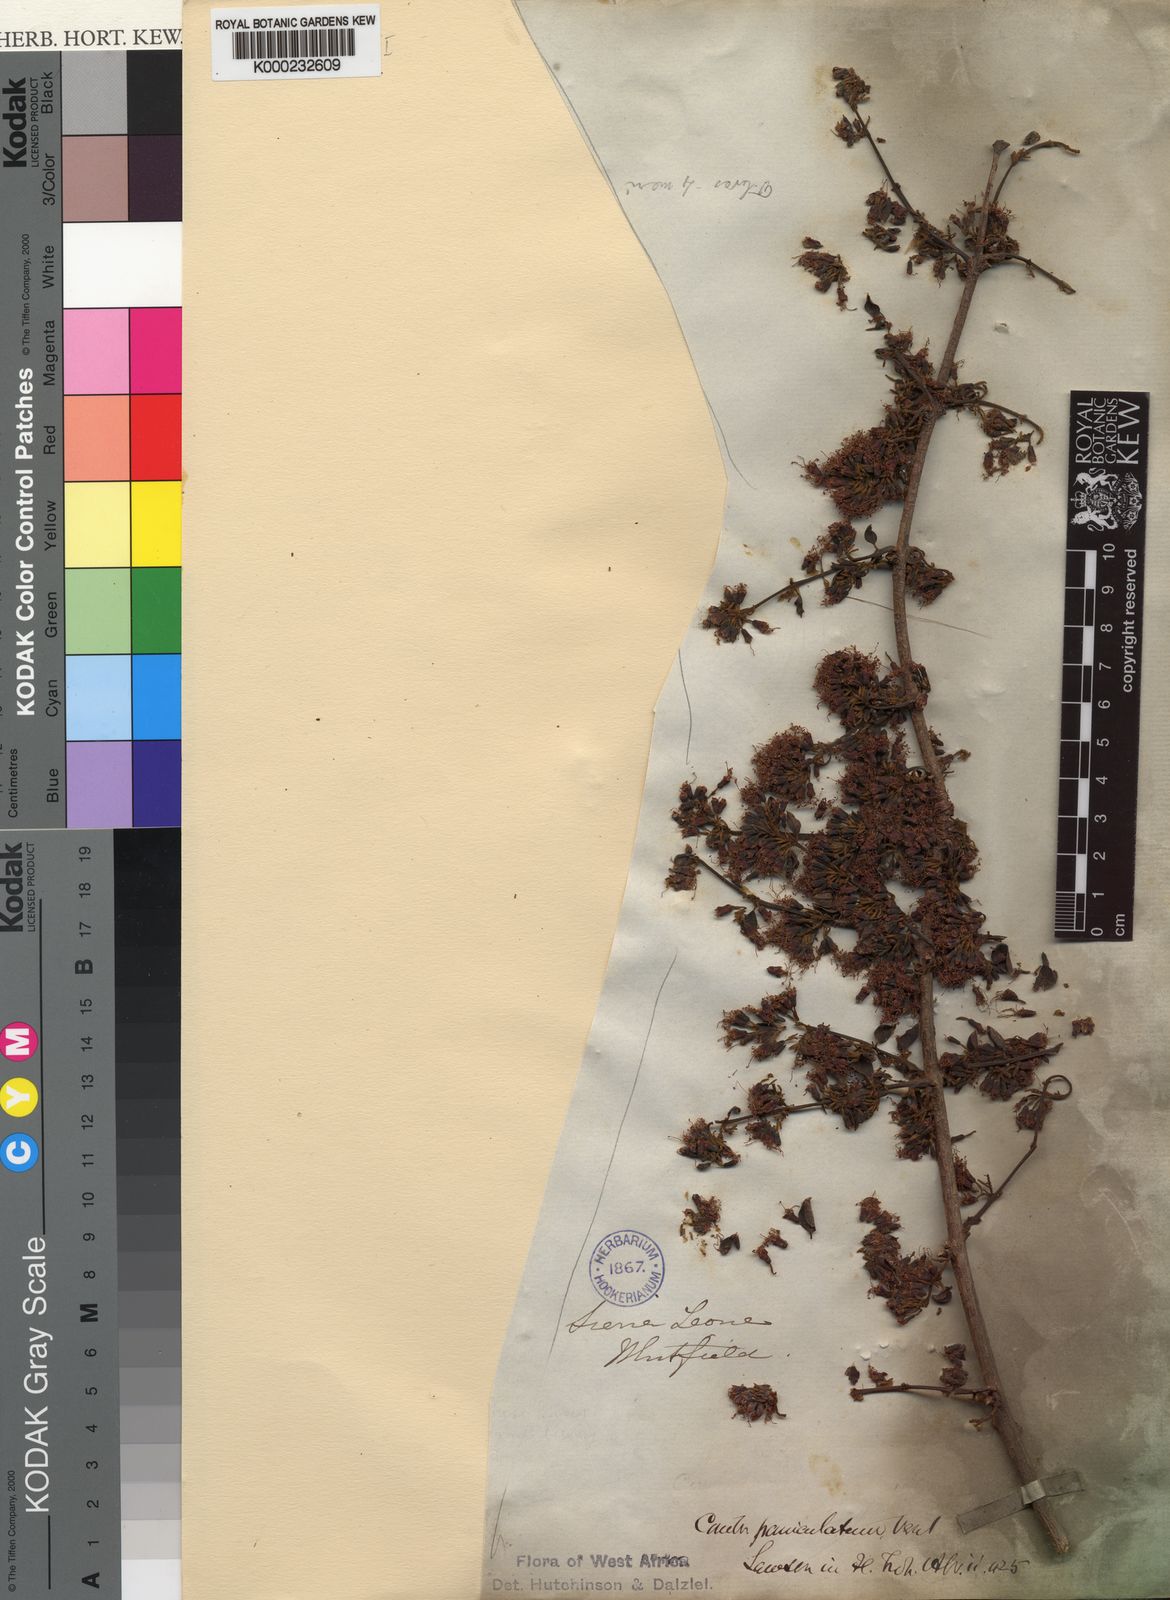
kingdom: Plantae
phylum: Tracheophyta
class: Magnoliopsida
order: Myrtales
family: Combretaceae
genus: Combretum
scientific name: Combretum paniculatum
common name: Fire vine
